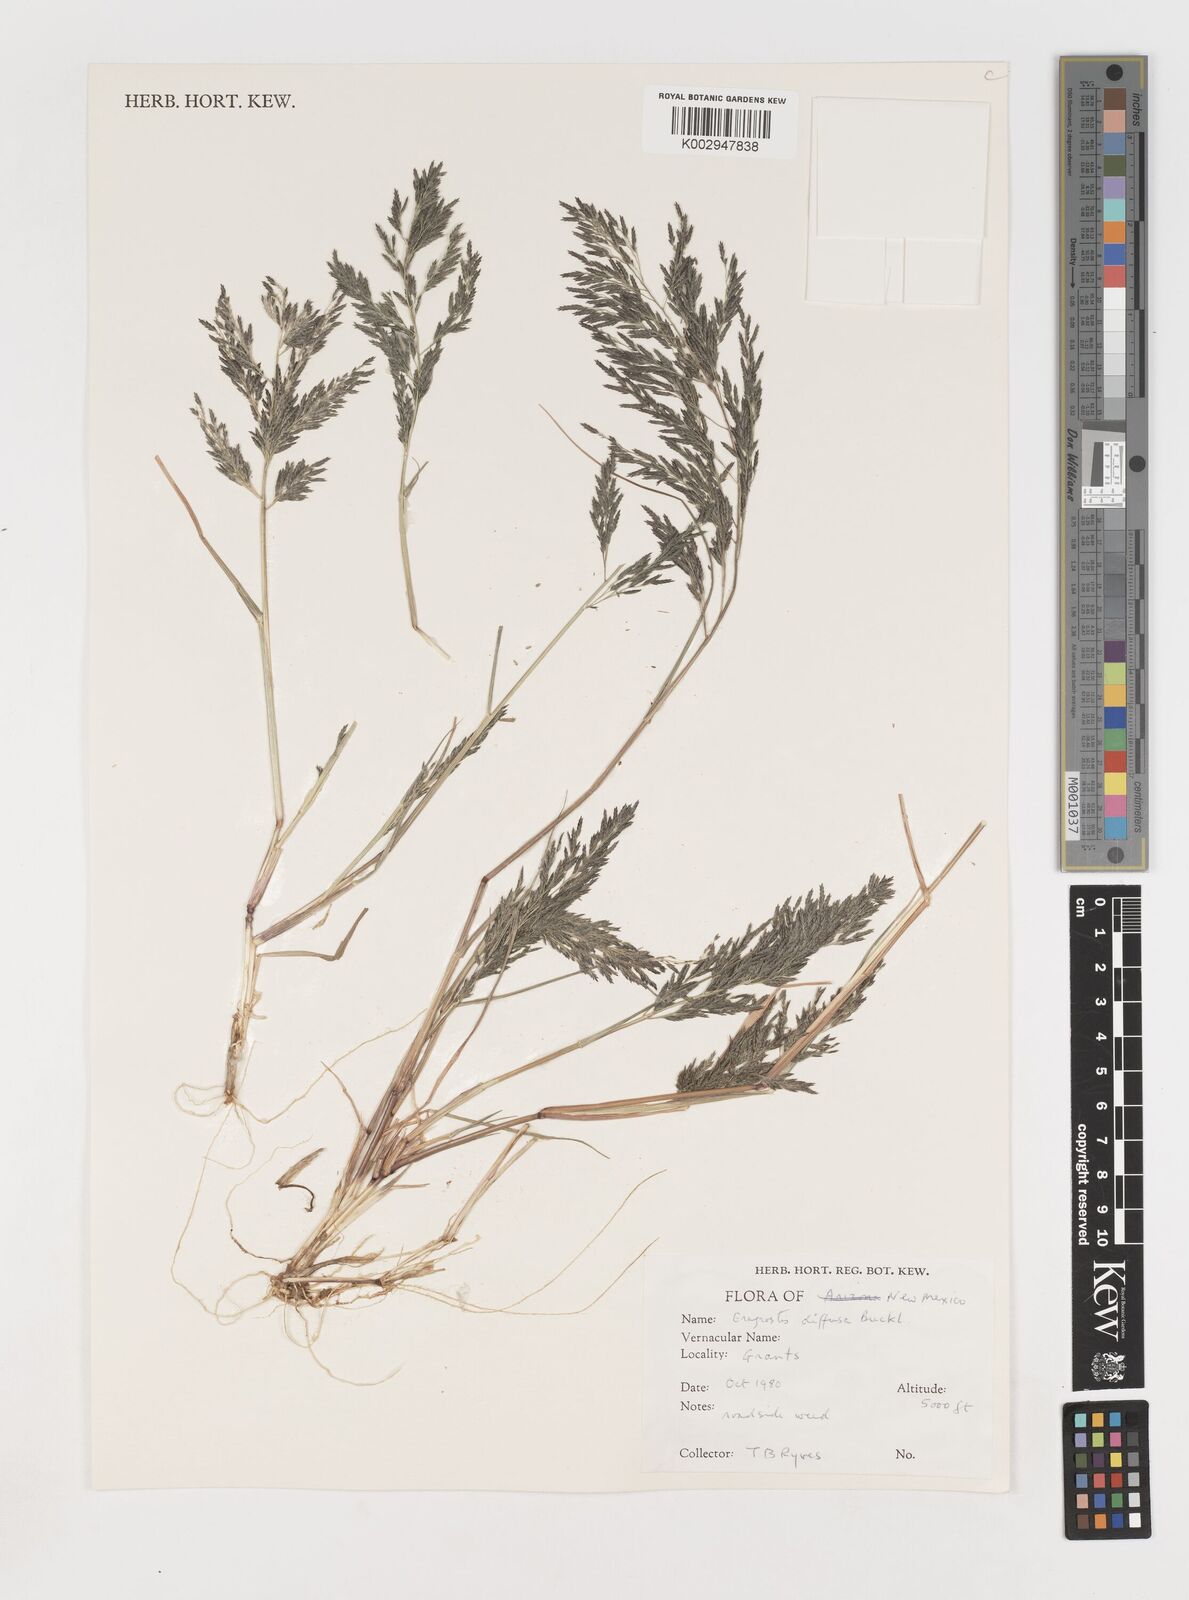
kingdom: Plantae
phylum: Tracheophyta
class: Liliopsida
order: Poales
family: Poaceae
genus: Eragrostis
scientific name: Eragrostis pectinacea
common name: Tufted lovegrass
